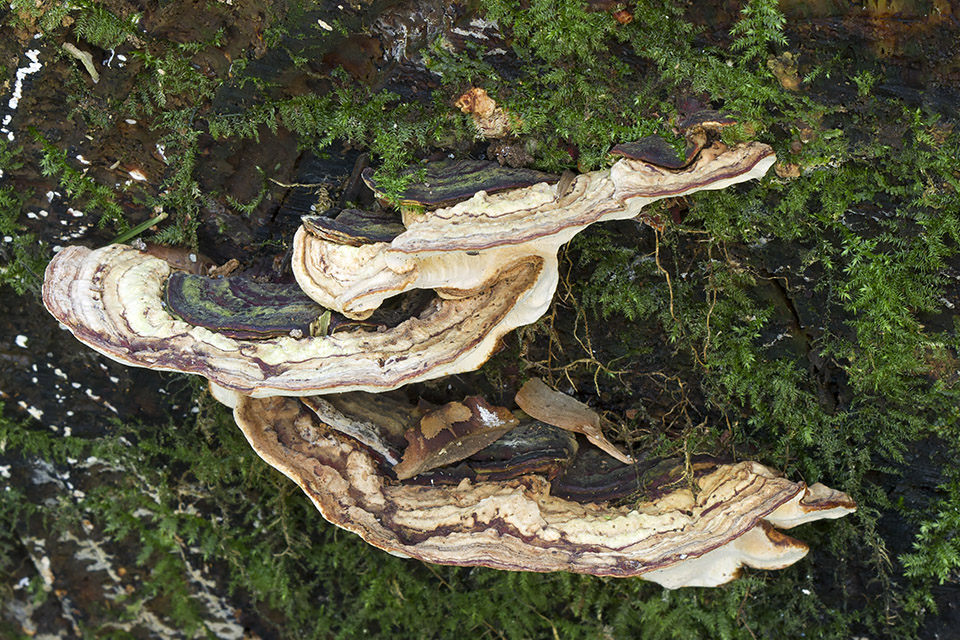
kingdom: Fungi
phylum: Basidiomycota
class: Agaricomycetes
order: Russulales
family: Bondarzewiaceae
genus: Heterobasidion
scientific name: Heterobasidion parviporum
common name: småporet rodfordærver
